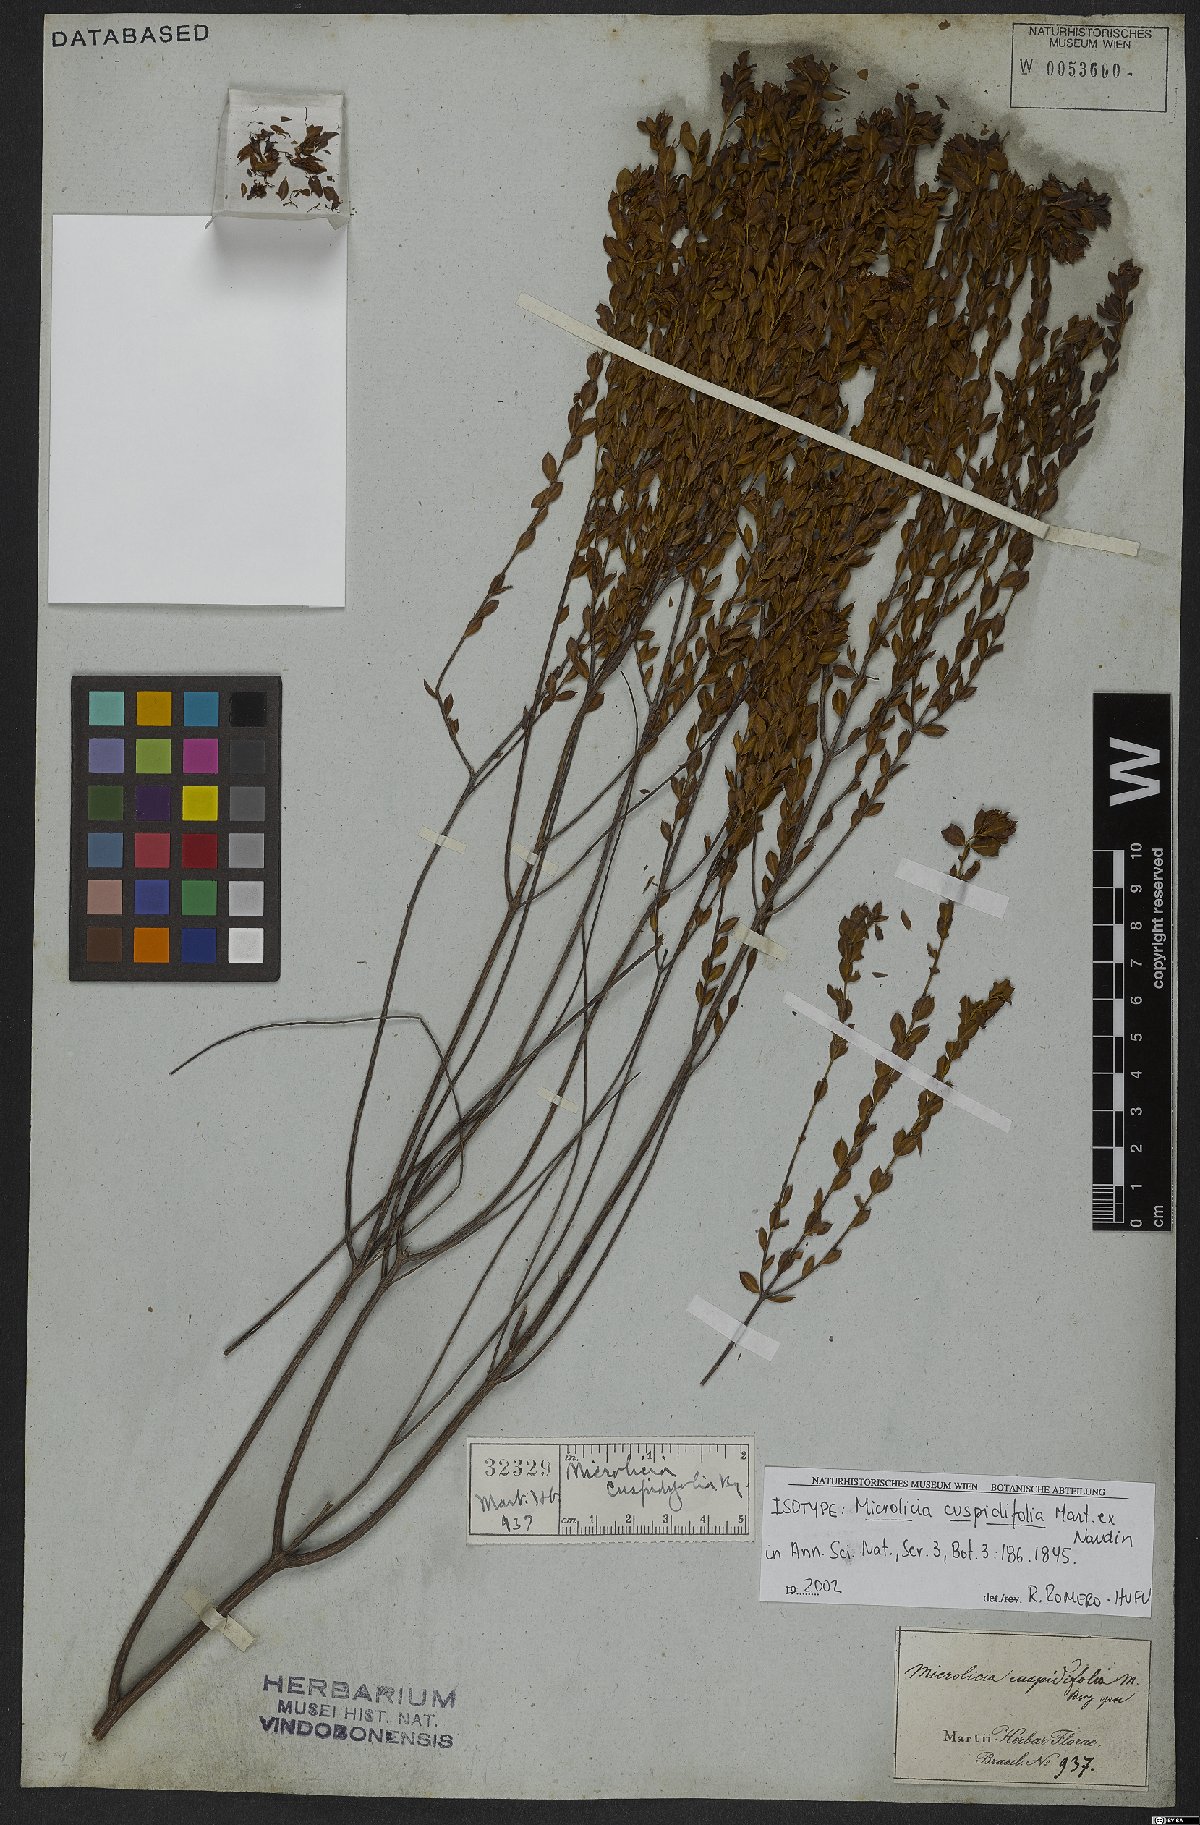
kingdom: Plantae
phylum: Tracheophyta
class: Magnoliopsida
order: Myrtales
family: Melastomataceae
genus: Microlicia
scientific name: Microlicia cuspidifolia
